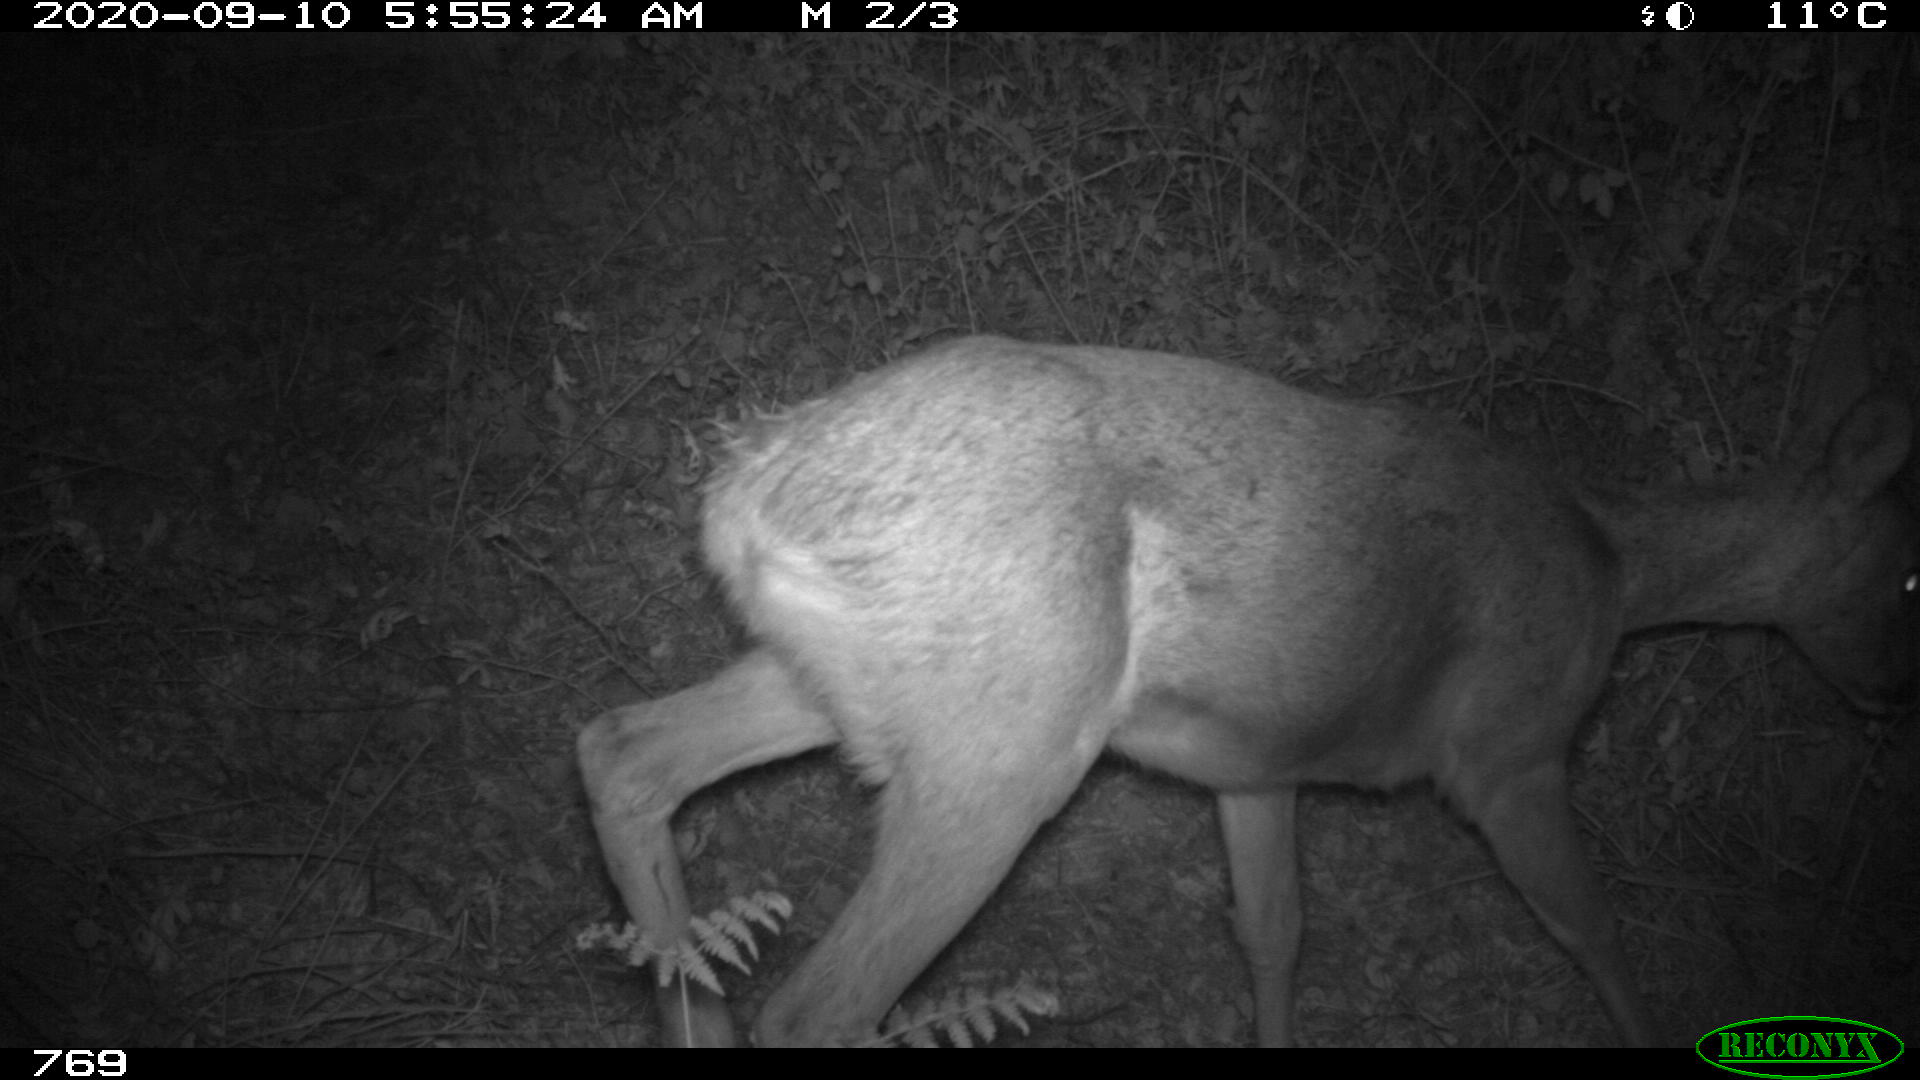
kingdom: Animalia
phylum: Chordata
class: Mammalia
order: Artiodactyla
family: Cervidae
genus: Capreolus
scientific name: Capreolus capreolus
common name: Western roe deer
